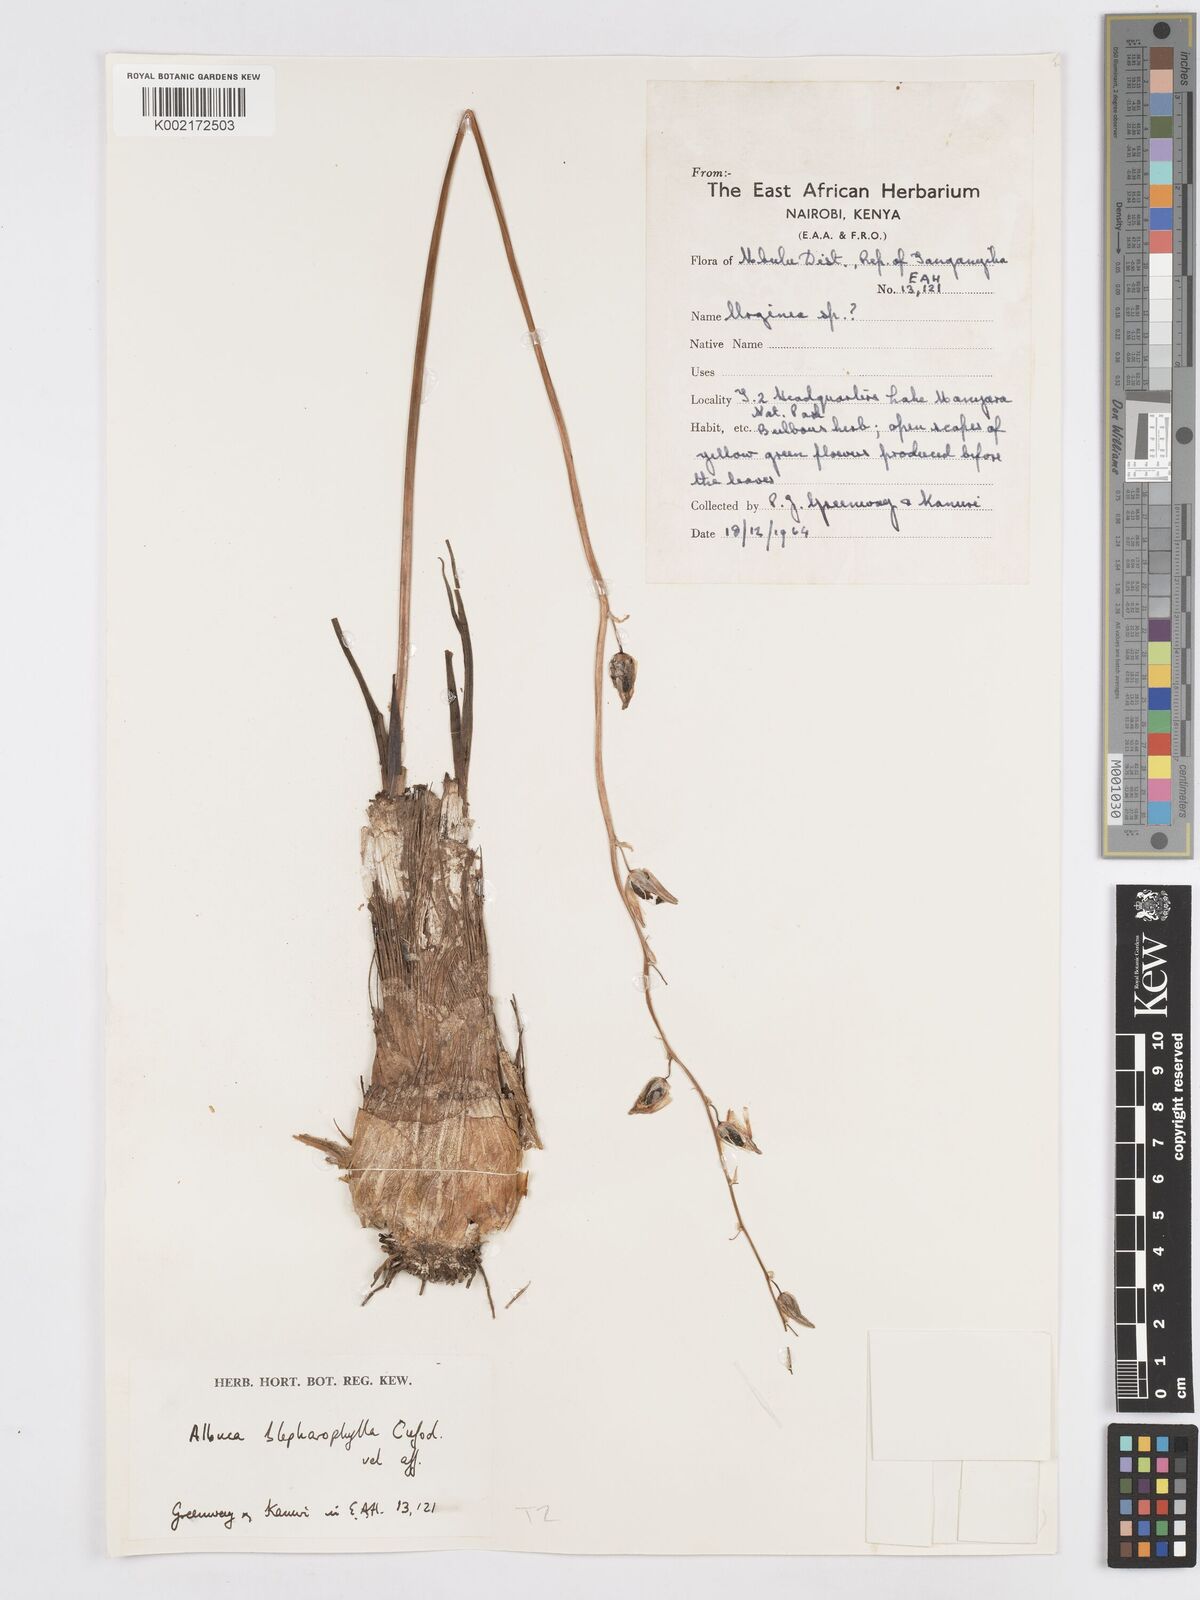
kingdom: Plantae
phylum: Tracheophyta
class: Liliopsida
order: Asparagales
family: Asparagaceae
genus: Albuca
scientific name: Albuca abyssinica
